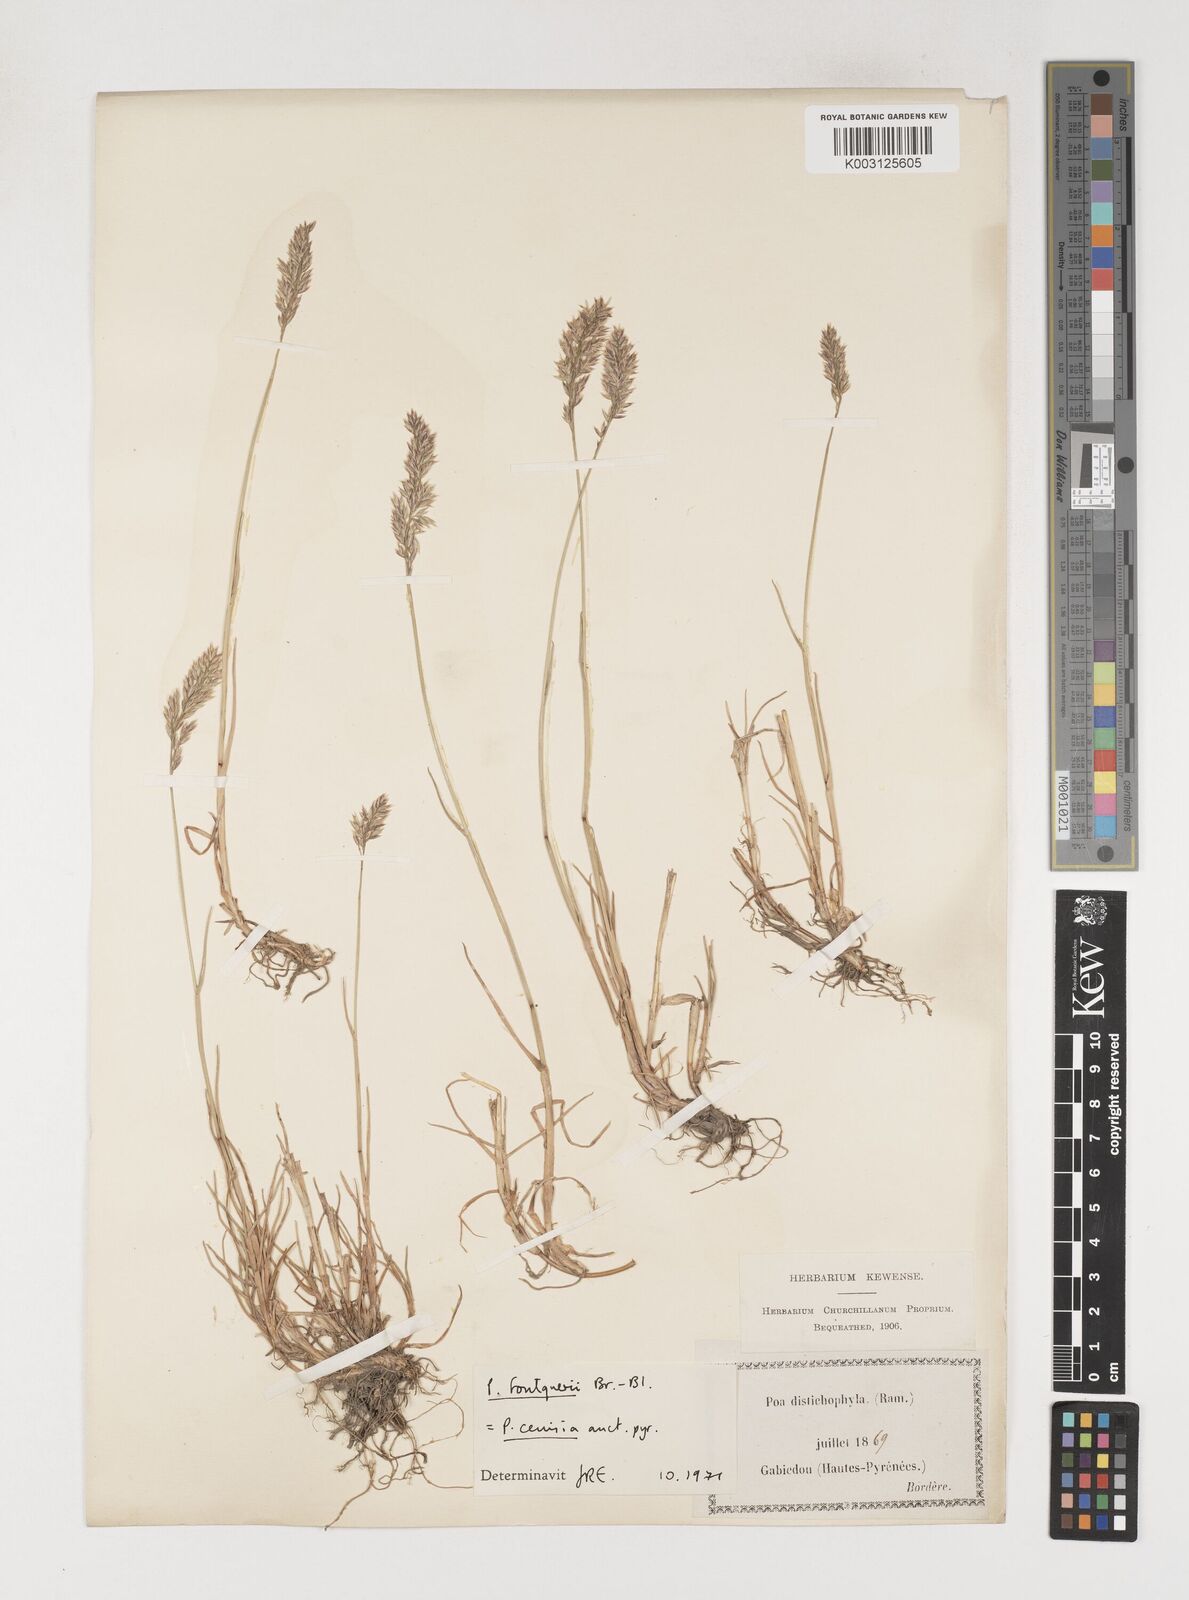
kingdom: Plantae
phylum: Tracheophyta
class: Liliopsida
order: Poales
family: Poaceae
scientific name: Poaceae
